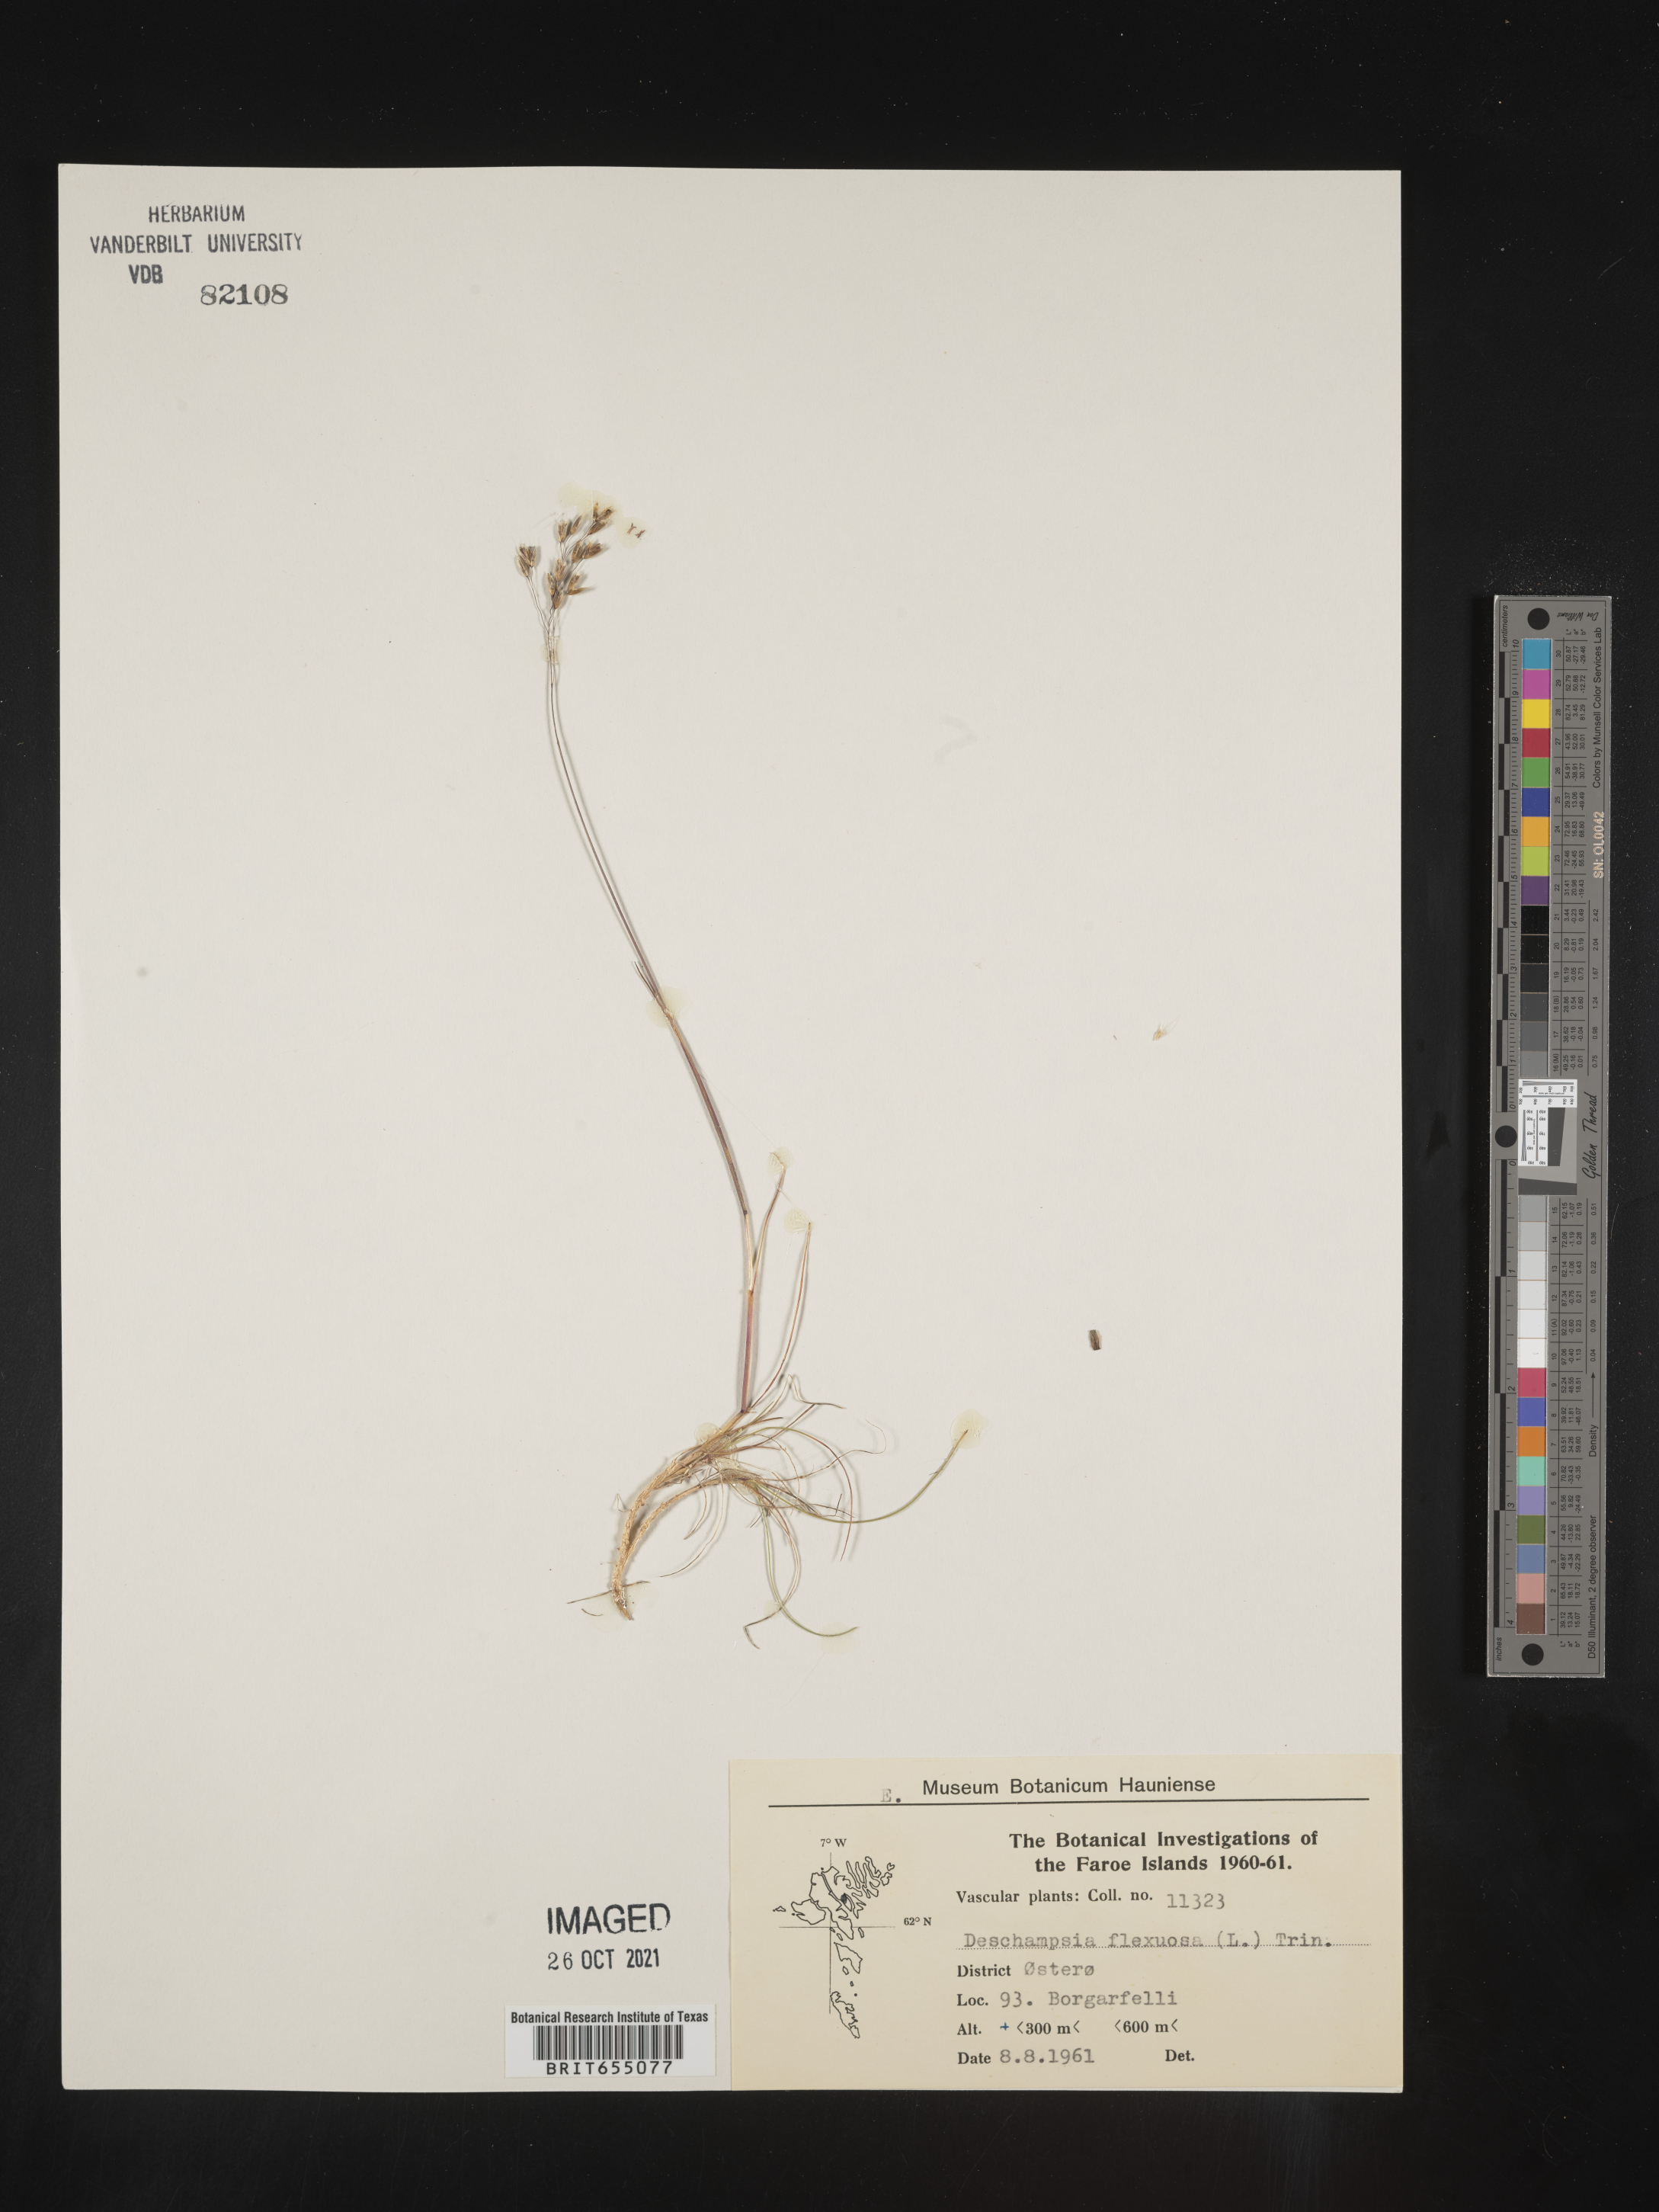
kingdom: Plantae
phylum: Tracheophyta
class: Liliopsida
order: Poales
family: Poaceae
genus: Deschampsia
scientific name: Deschampsia
